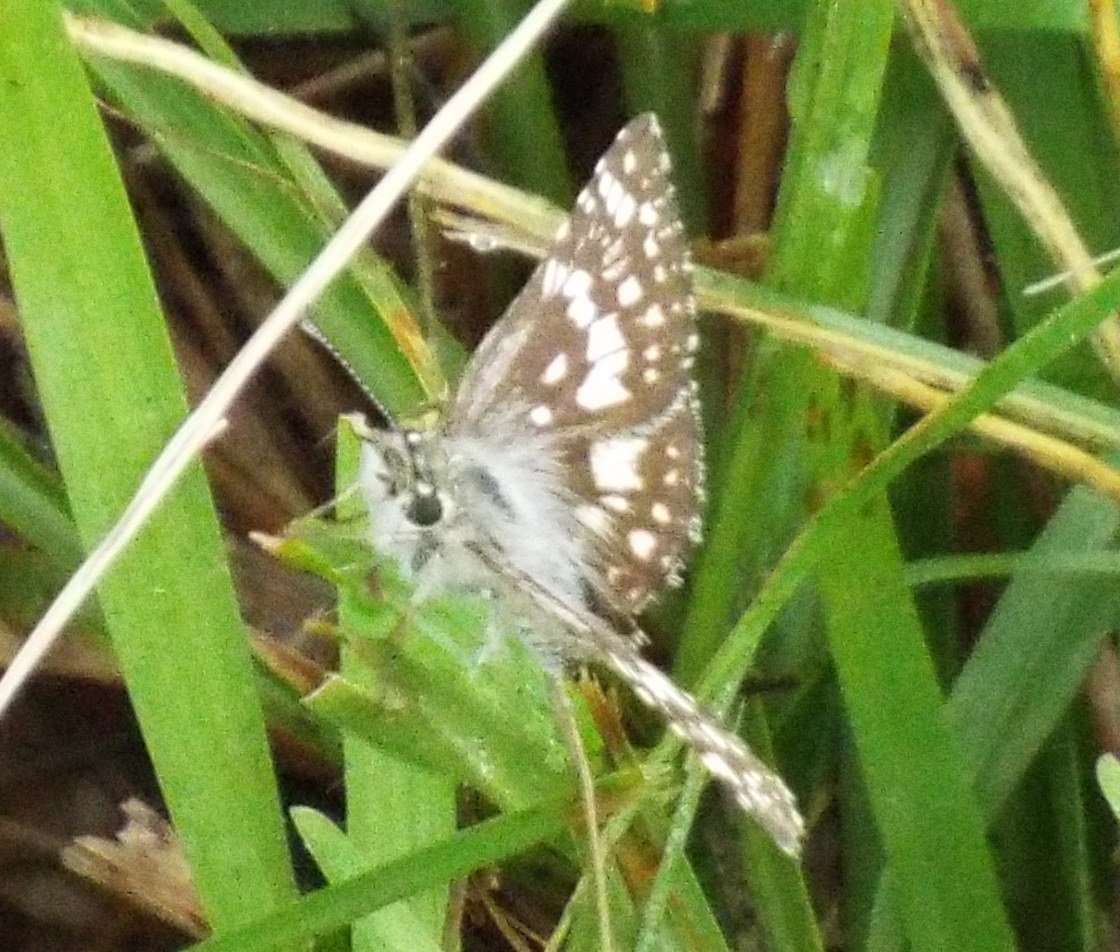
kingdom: Animalia
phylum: Arthropoda
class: Insecta
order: Lepidoptera
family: Hesperiidae
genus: Pyrgus
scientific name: Pyrgus communis
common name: White Checkered-Skipper
